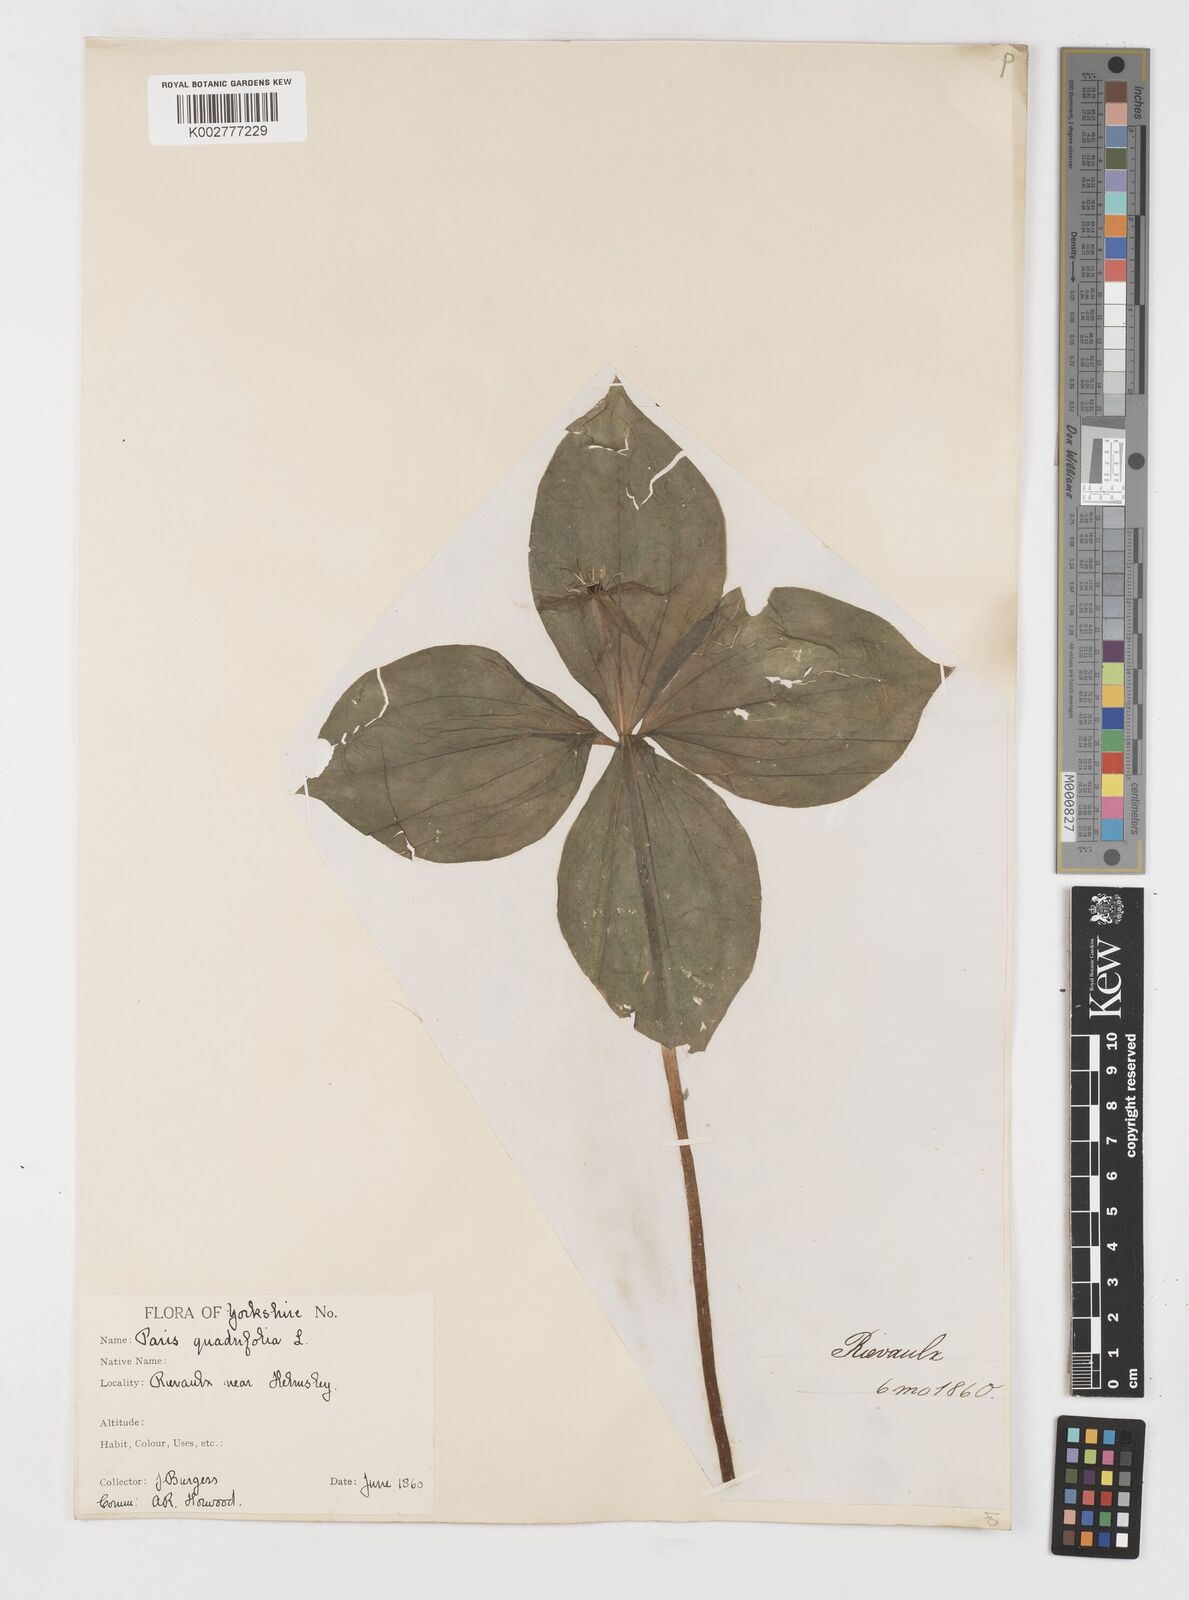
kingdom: Plantae
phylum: Tracheophyta
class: Liliopsida
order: Liliales
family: Melanthiaceae
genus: Paris
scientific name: Paris quadrifolia
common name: Herb-paris
